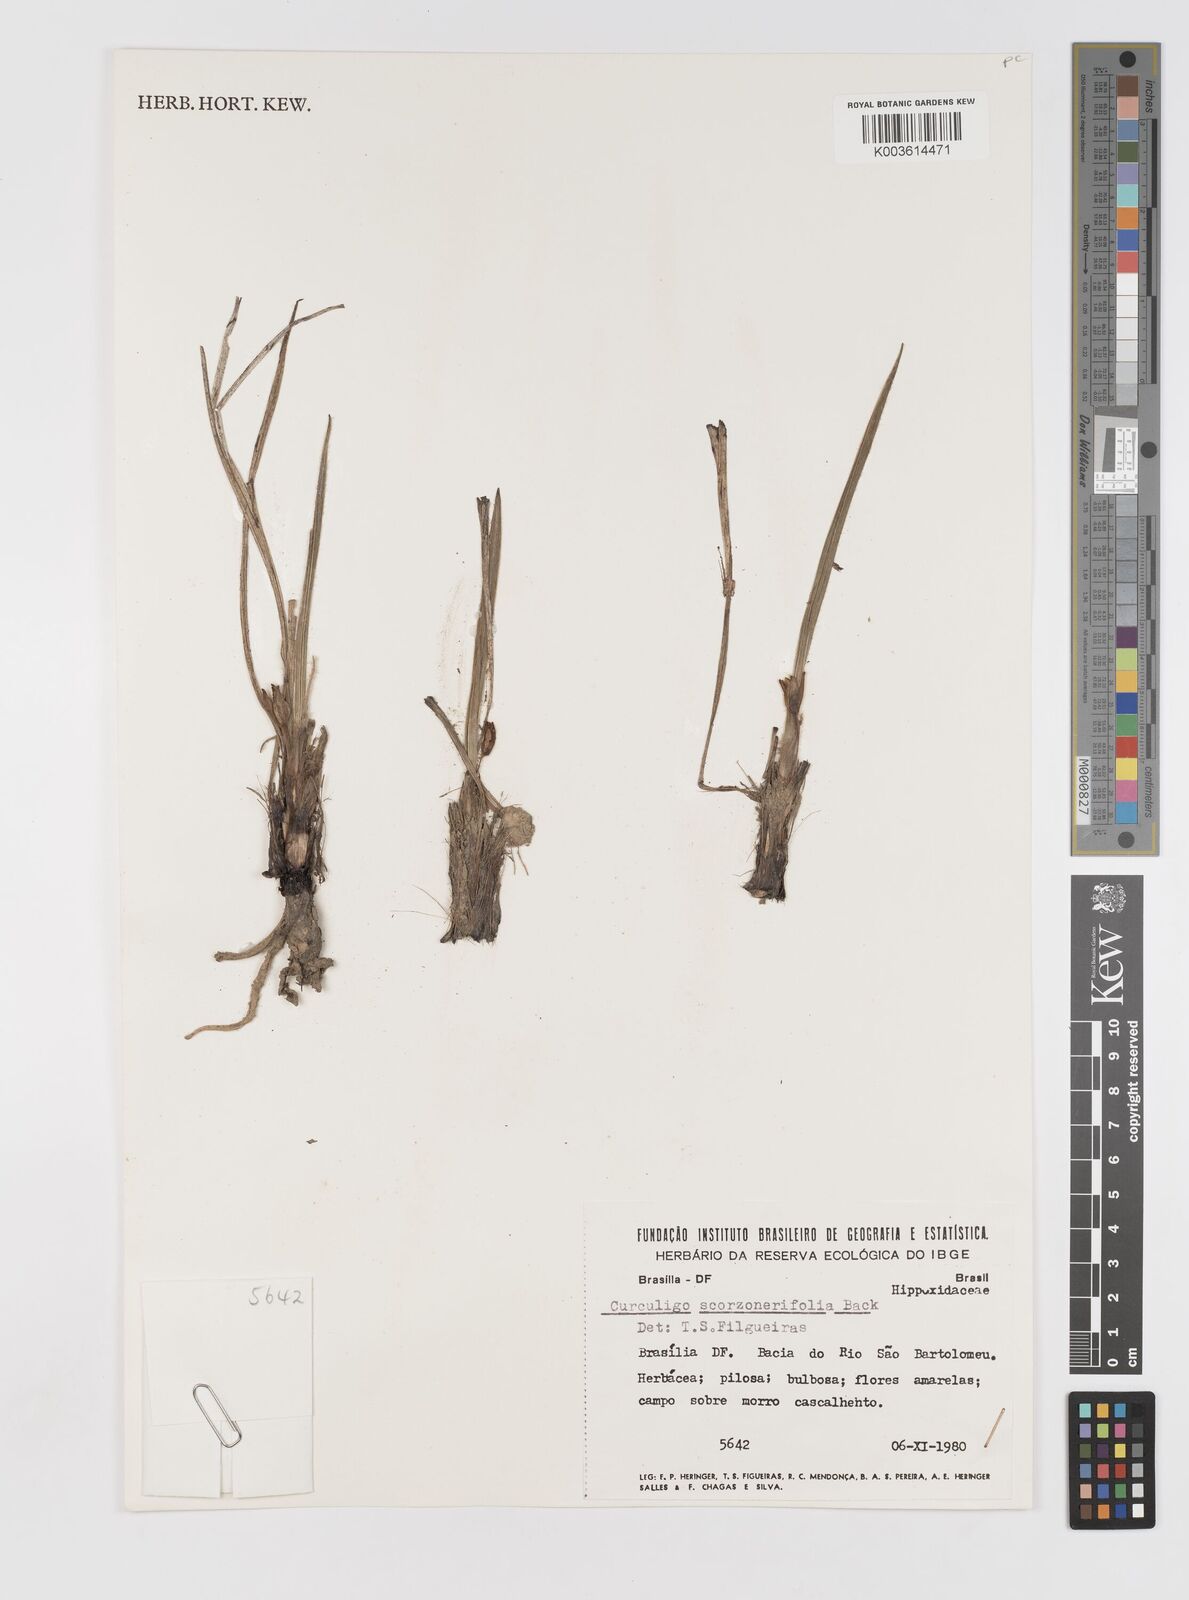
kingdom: Plantae
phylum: Tracheophyta
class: Liliopsida
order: Asparagales
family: Hypoxidaceae
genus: Curculigo
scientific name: Curculigo scorzonerifolia
